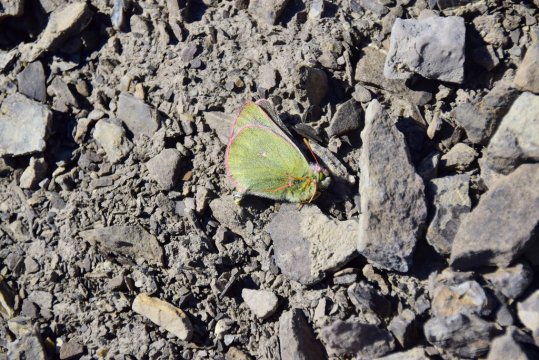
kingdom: Animalia
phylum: Arthropoda
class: Insecta
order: Lepidoptera
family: Pieridae
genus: Colias
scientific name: Colias nastes
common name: Labrador Sulphur
